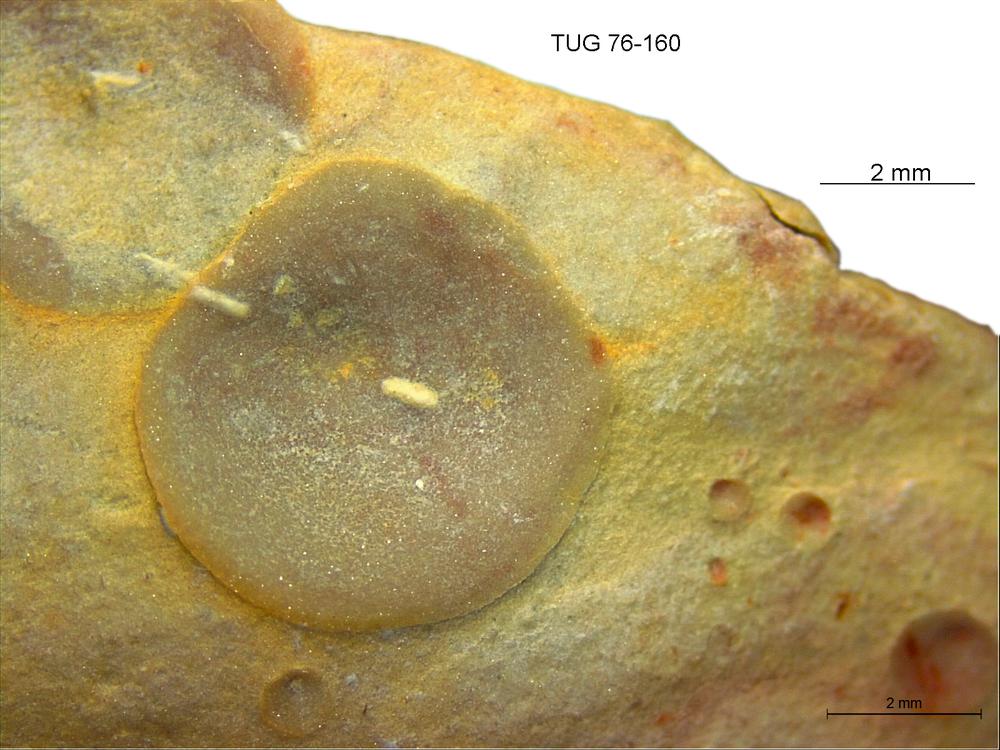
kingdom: Animalia
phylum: Brachiopoda
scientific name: Brachiopoda
